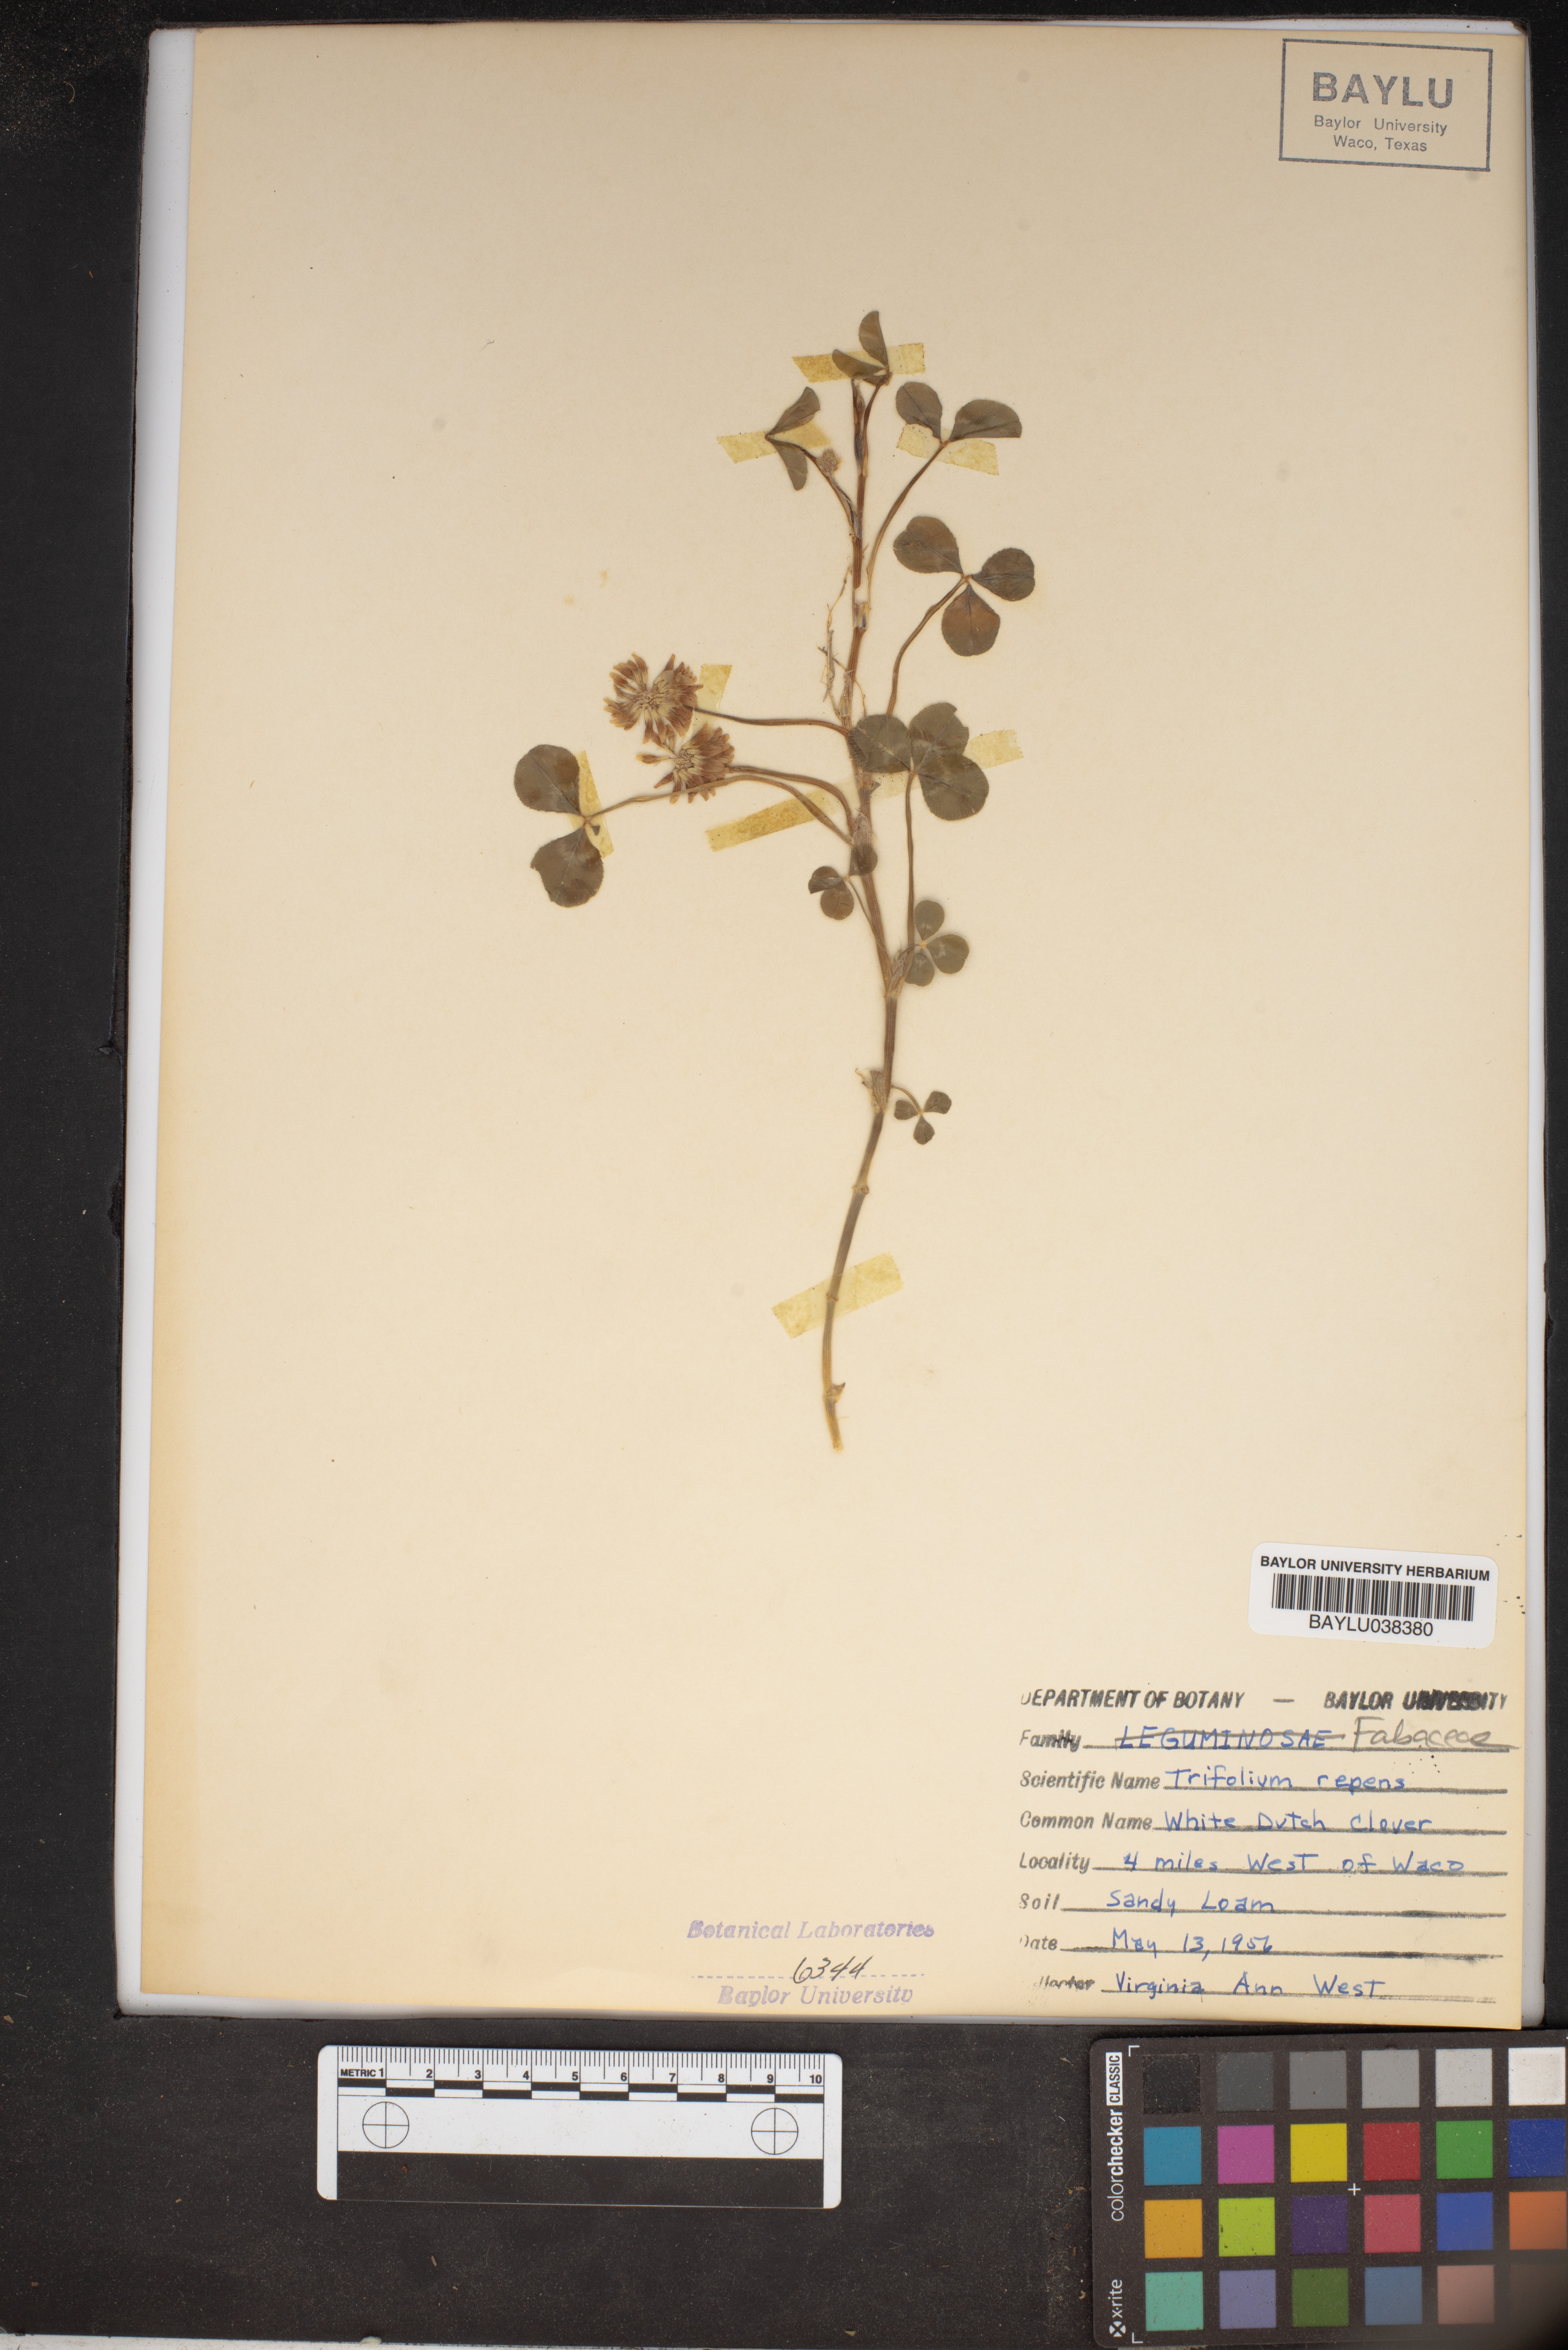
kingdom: Plantae
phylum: Tracheophyta
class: Magnoliopsida
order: Fabales
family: Fabaceae
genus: Trifolium
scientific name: Trifolium repens
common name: White clover
